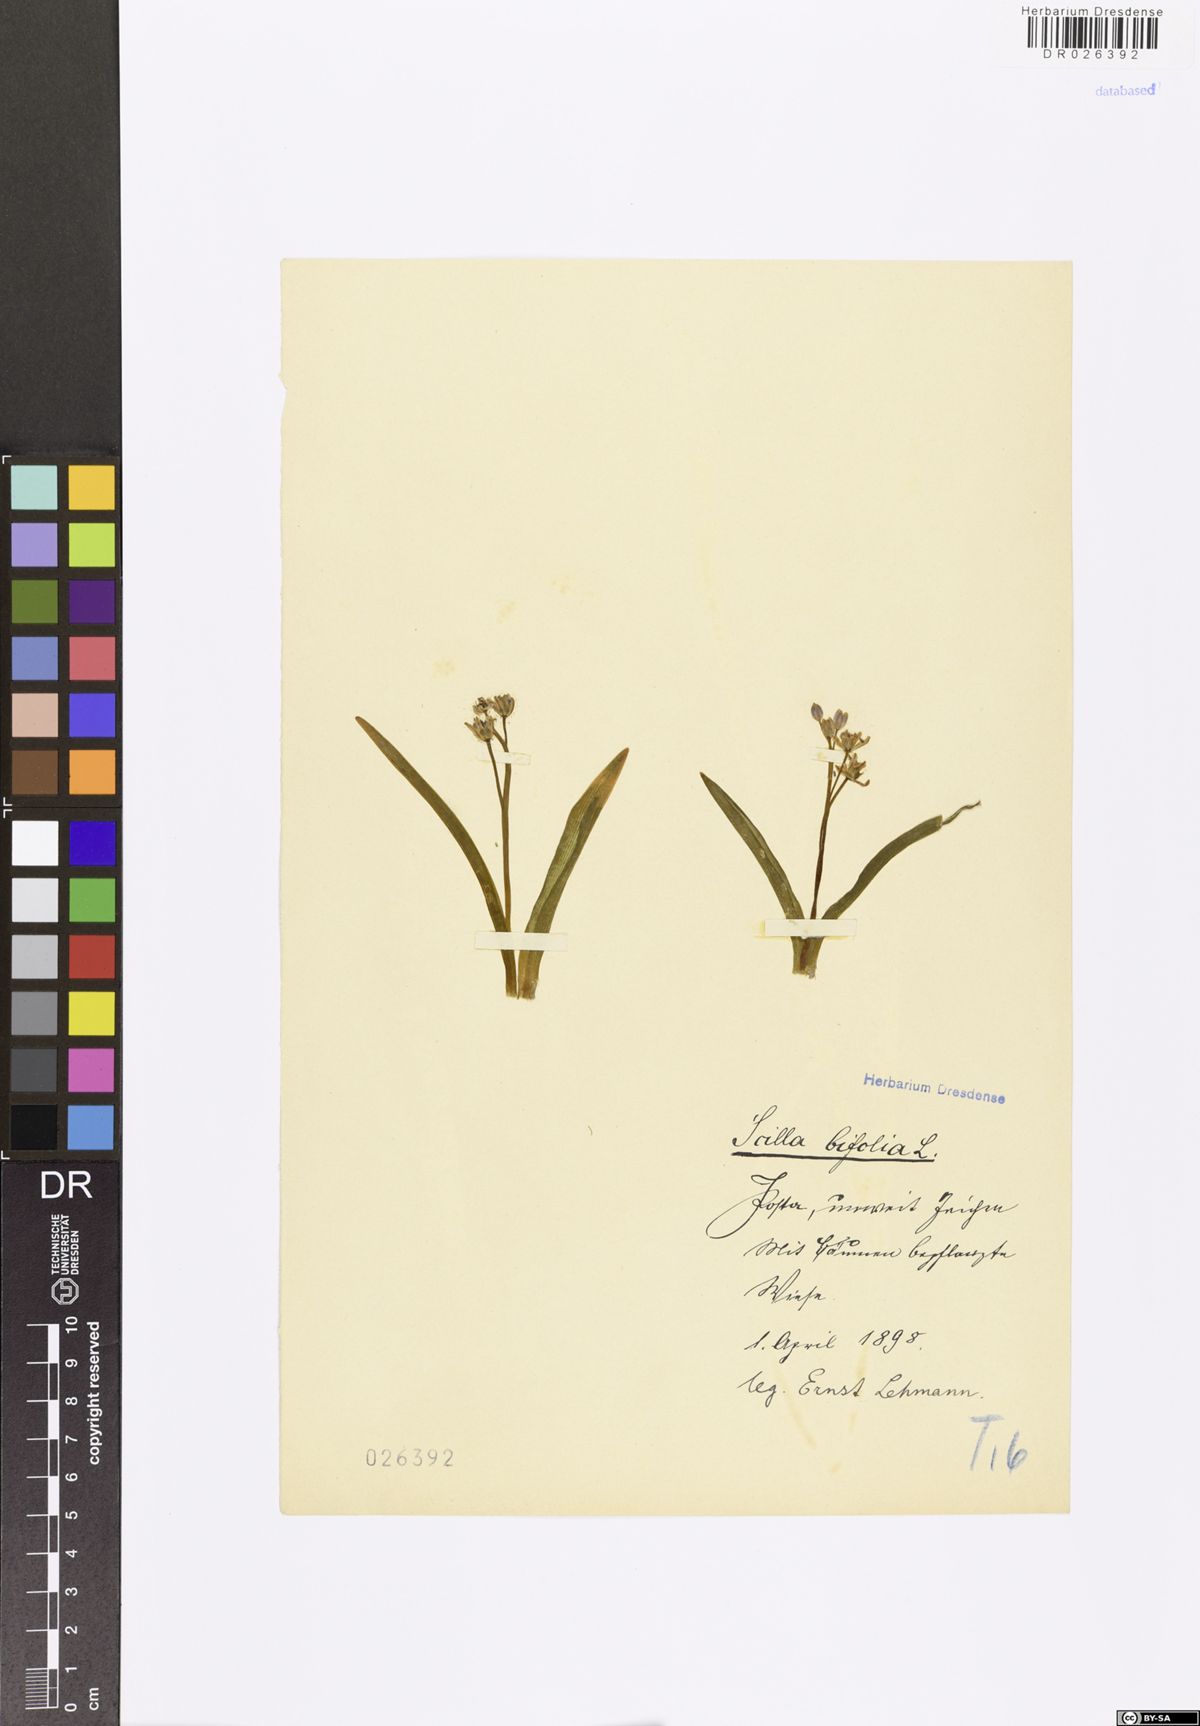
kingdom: Plantae
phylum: Tracheophyta
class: Liliopsida
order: Asparagales
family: Asparagaceae
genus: Scilla
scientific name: Scilla vindobonensis
